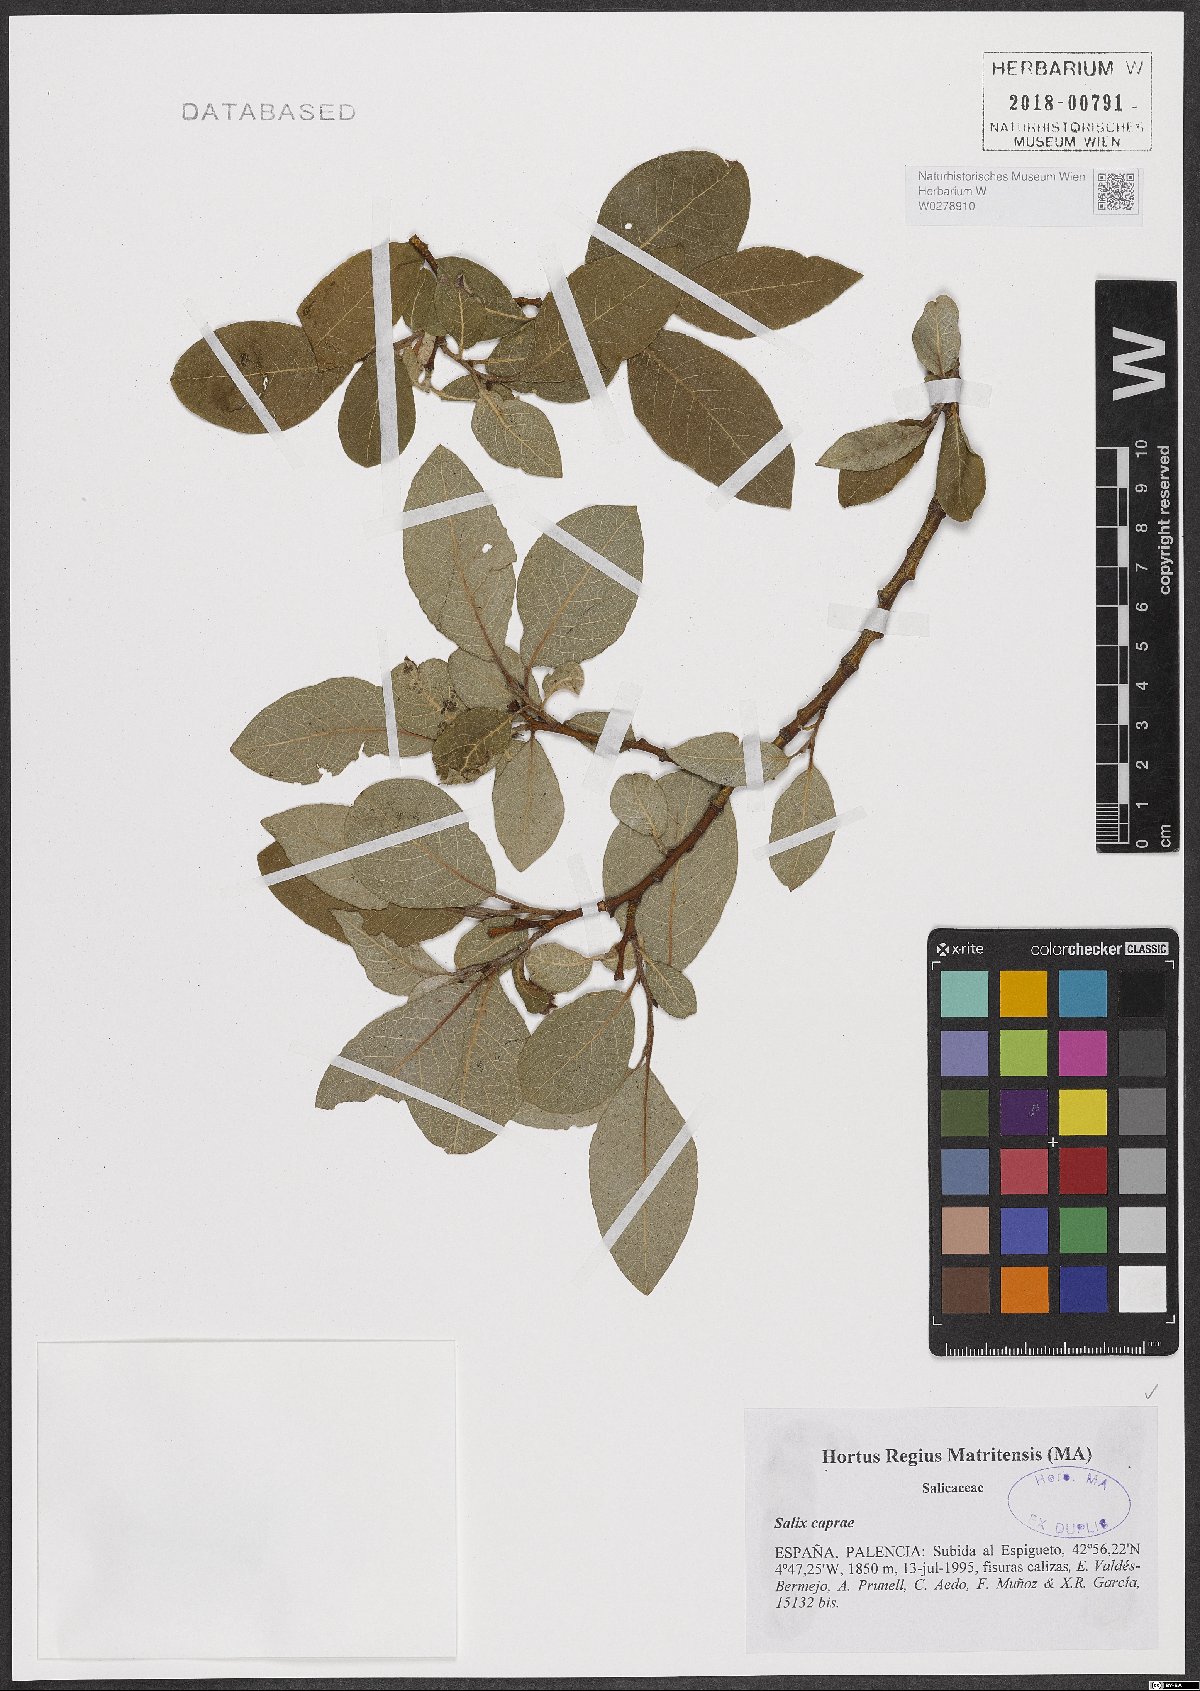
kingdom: Plantae
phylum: Tracheophyta
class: Magnoliopsida
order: Malpighiales
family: Salicaceae
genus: Salix
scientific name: Salix caprea
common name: Goat willow
